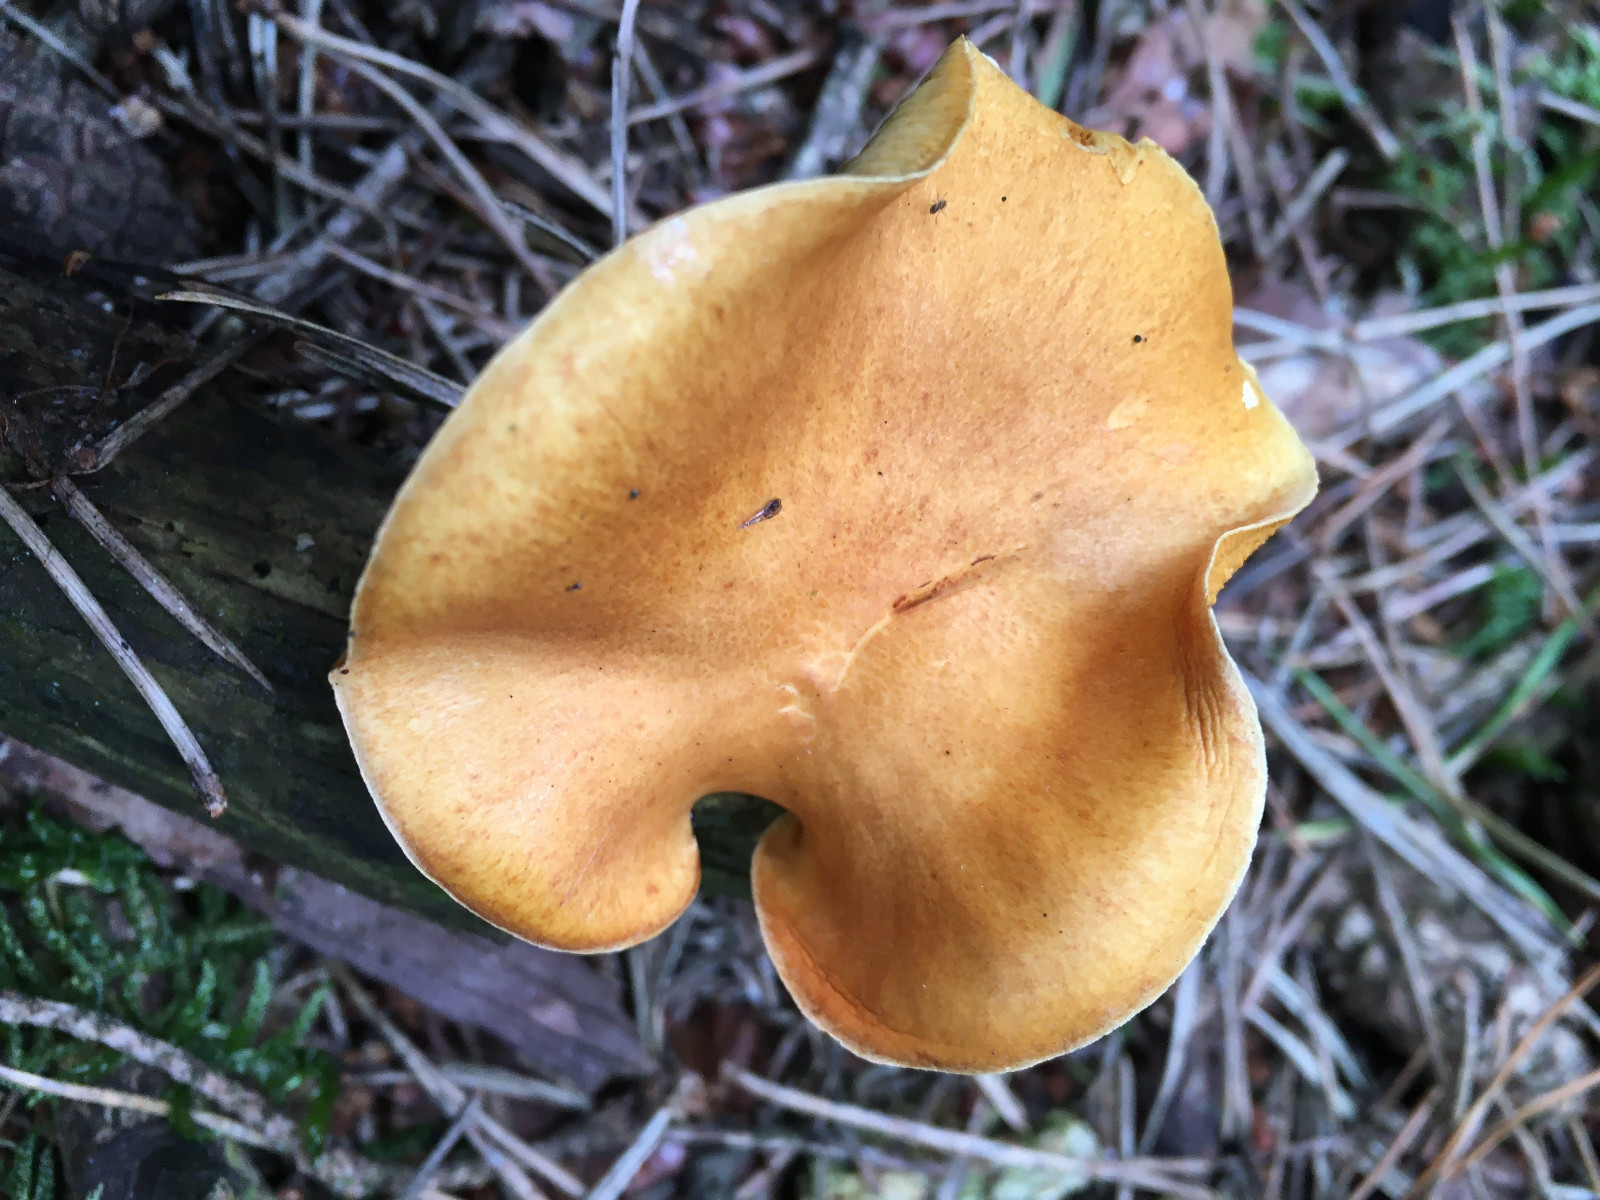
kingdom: Fungi
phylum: Basidiomycota
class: Agaricomycetes
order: Agaricales
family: Hymenogastraceae
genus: Gymnopilus
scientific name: Gymnopilus penetrans
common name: plettet flammehat
